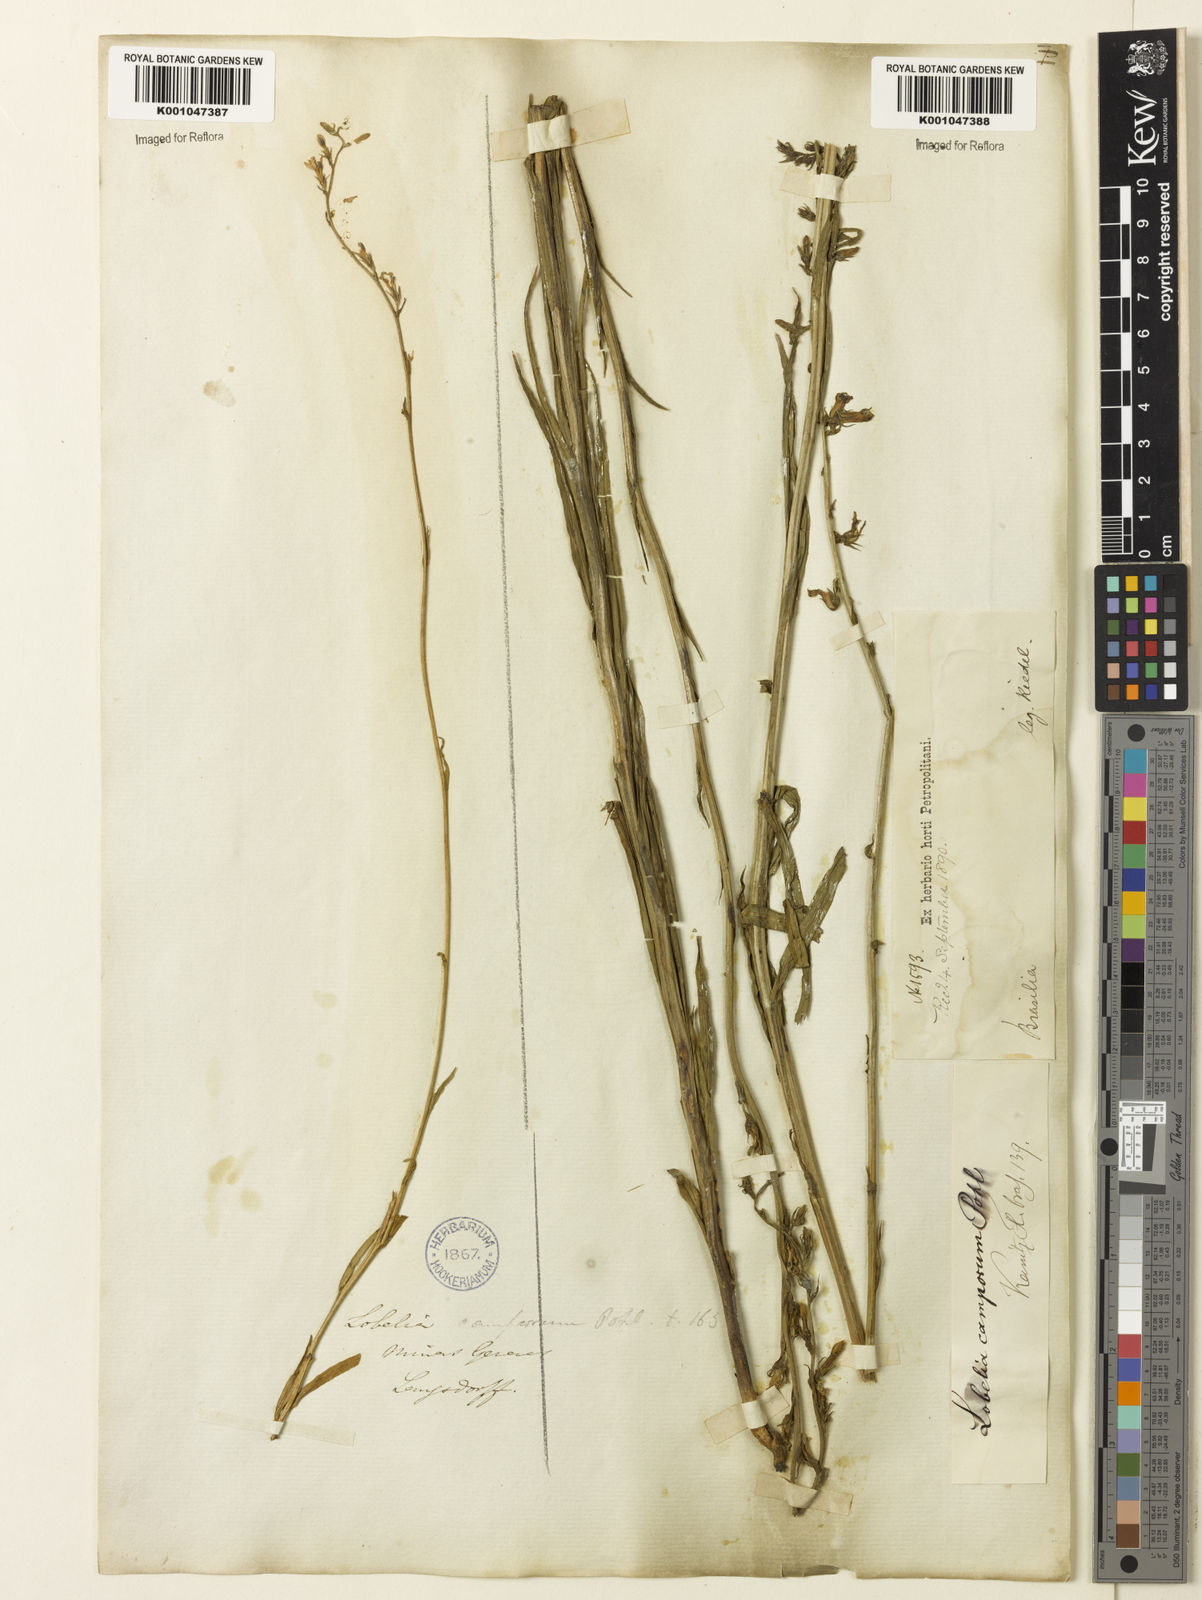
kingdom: Plantae
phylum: Tracheophyta
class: Magnoliopsida
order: Asterales
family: Campanulaceae
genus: Lobelia
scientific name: Lobelia camporum
